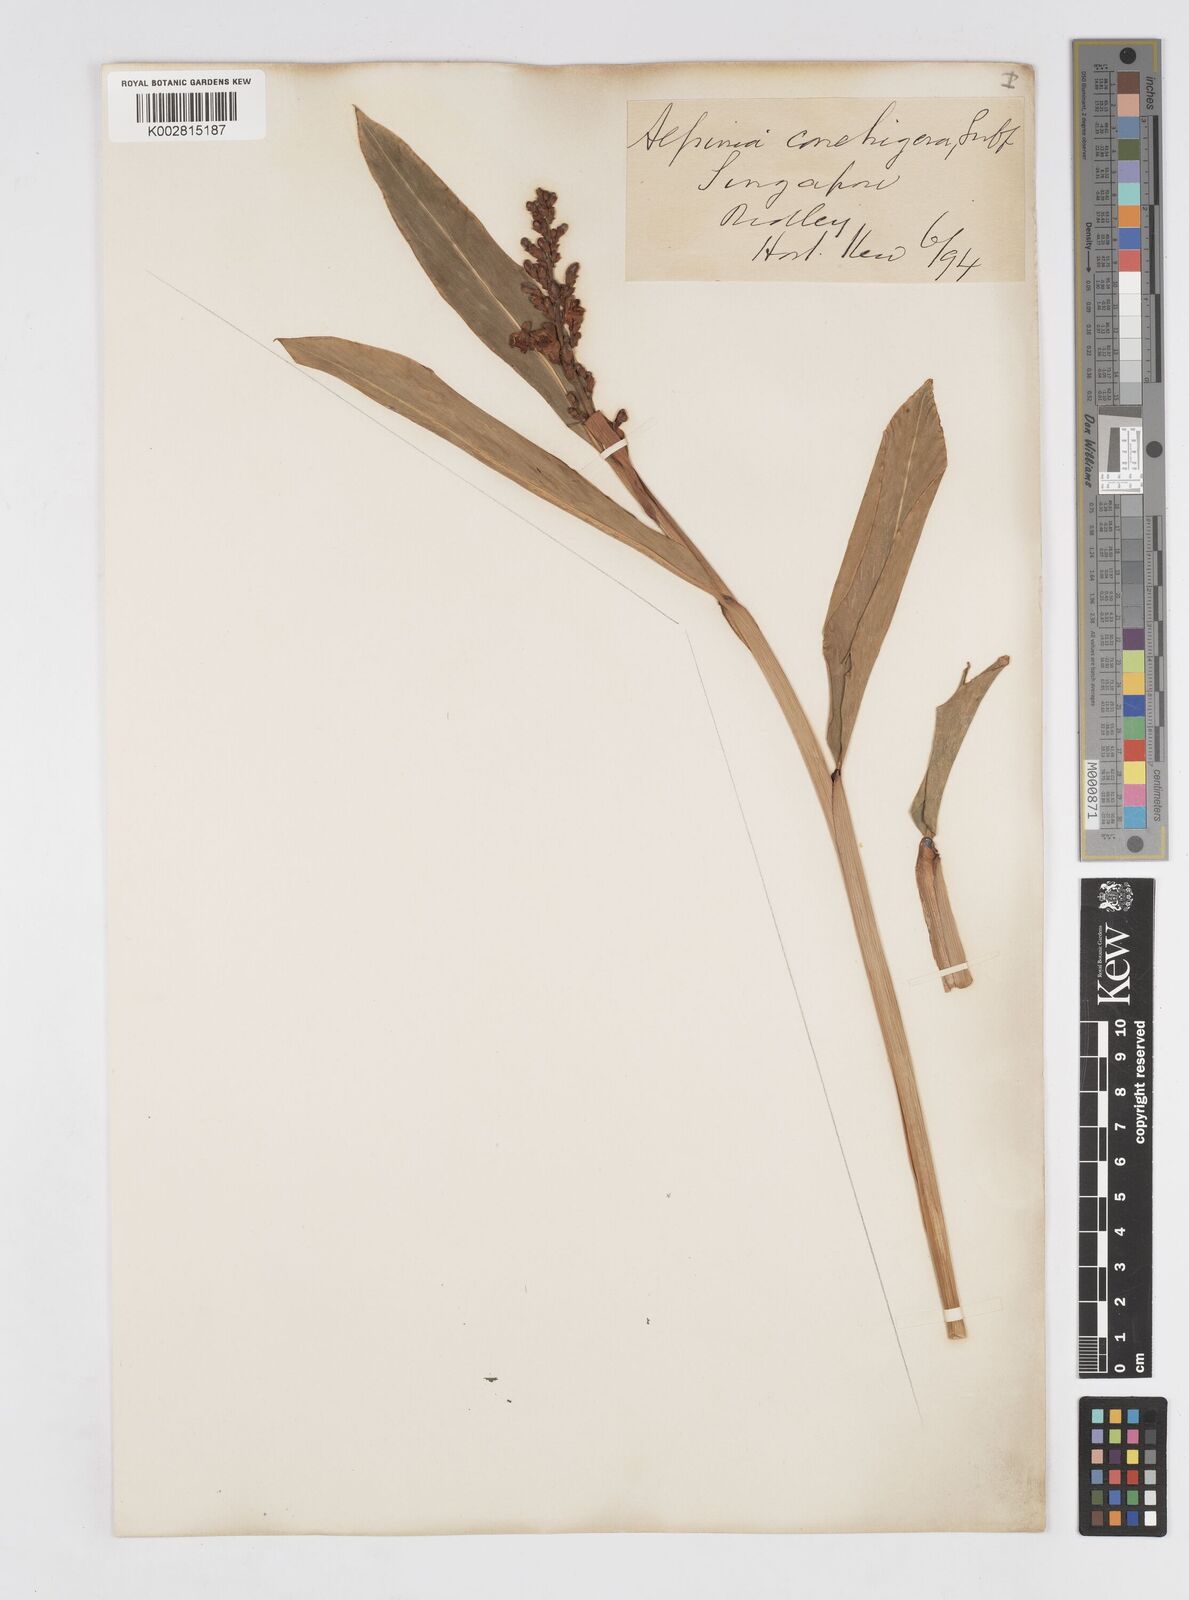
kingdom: Plantae
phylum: Tracheophyta
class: Liliopsida
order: Zingiberales
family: Zingiberaceae
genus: Alpinia
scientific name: Alpinia conchigera
